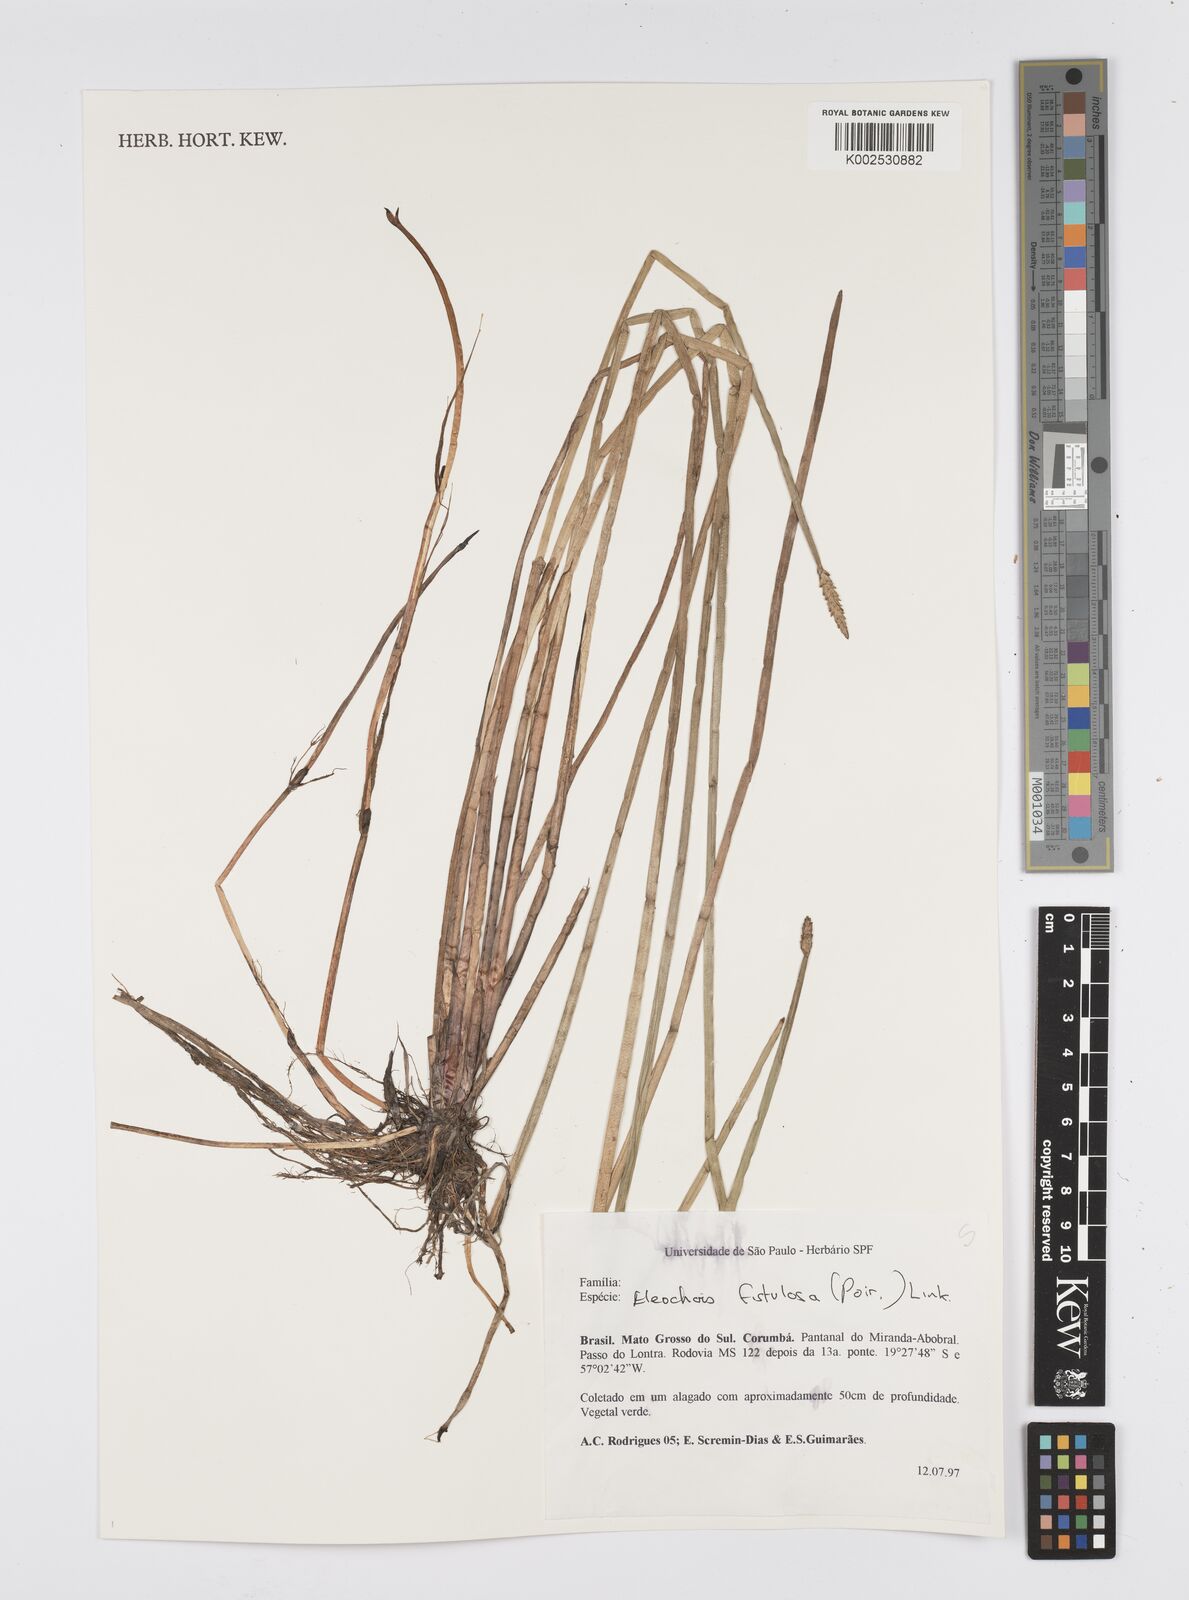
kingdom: Plantae
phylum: Tracheophyta
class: Liliopsida
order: Poales
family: Cyperaceae
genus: Eleocharis
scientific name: Eleocharis acutangula
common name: Acute spikerush
